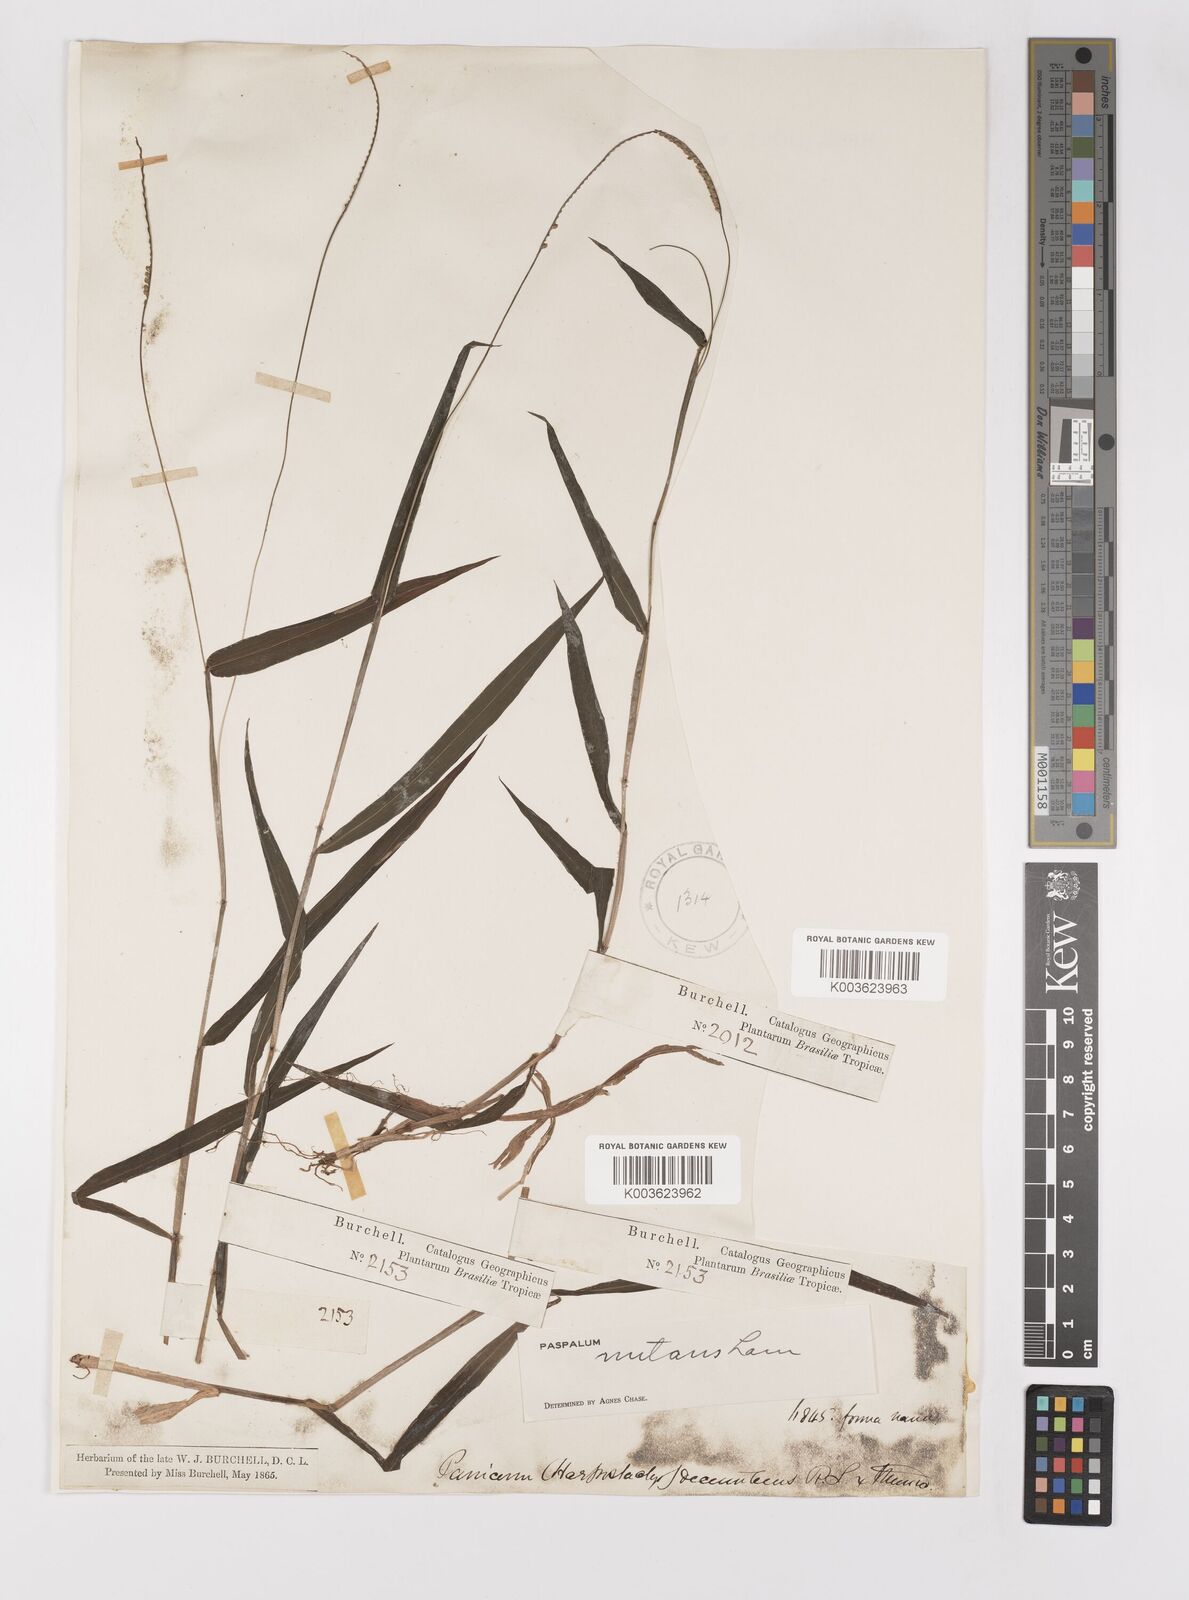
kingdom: Plantae
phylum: Tracheophyta
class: Liliopsida
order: Poales
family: Poaceae
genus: Paspalum
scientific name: Paspalum nutans
